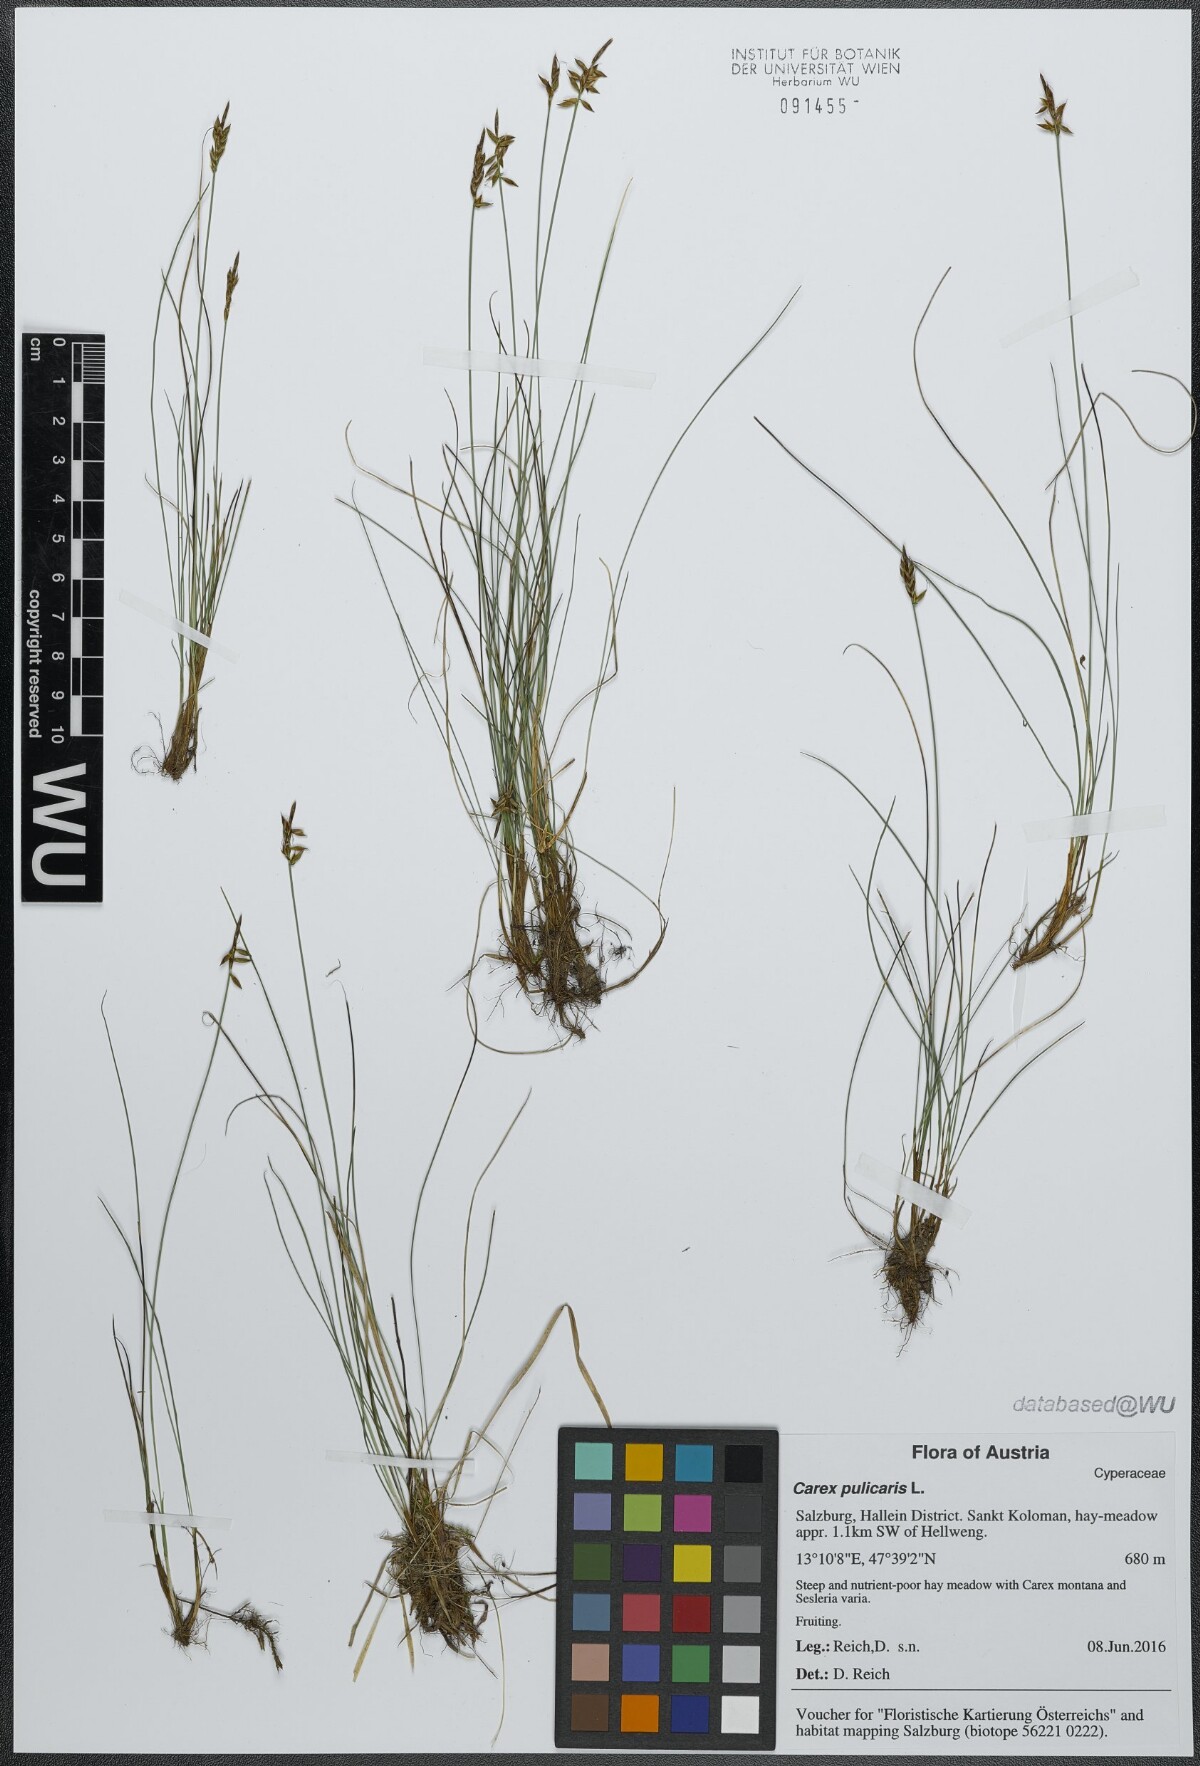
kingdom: Plantae
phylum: Tracheophyta
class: Liliopsida
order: Poales
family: Cyperaceae
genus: Carex
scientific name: Carex pulicaris
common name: Flea sedge
